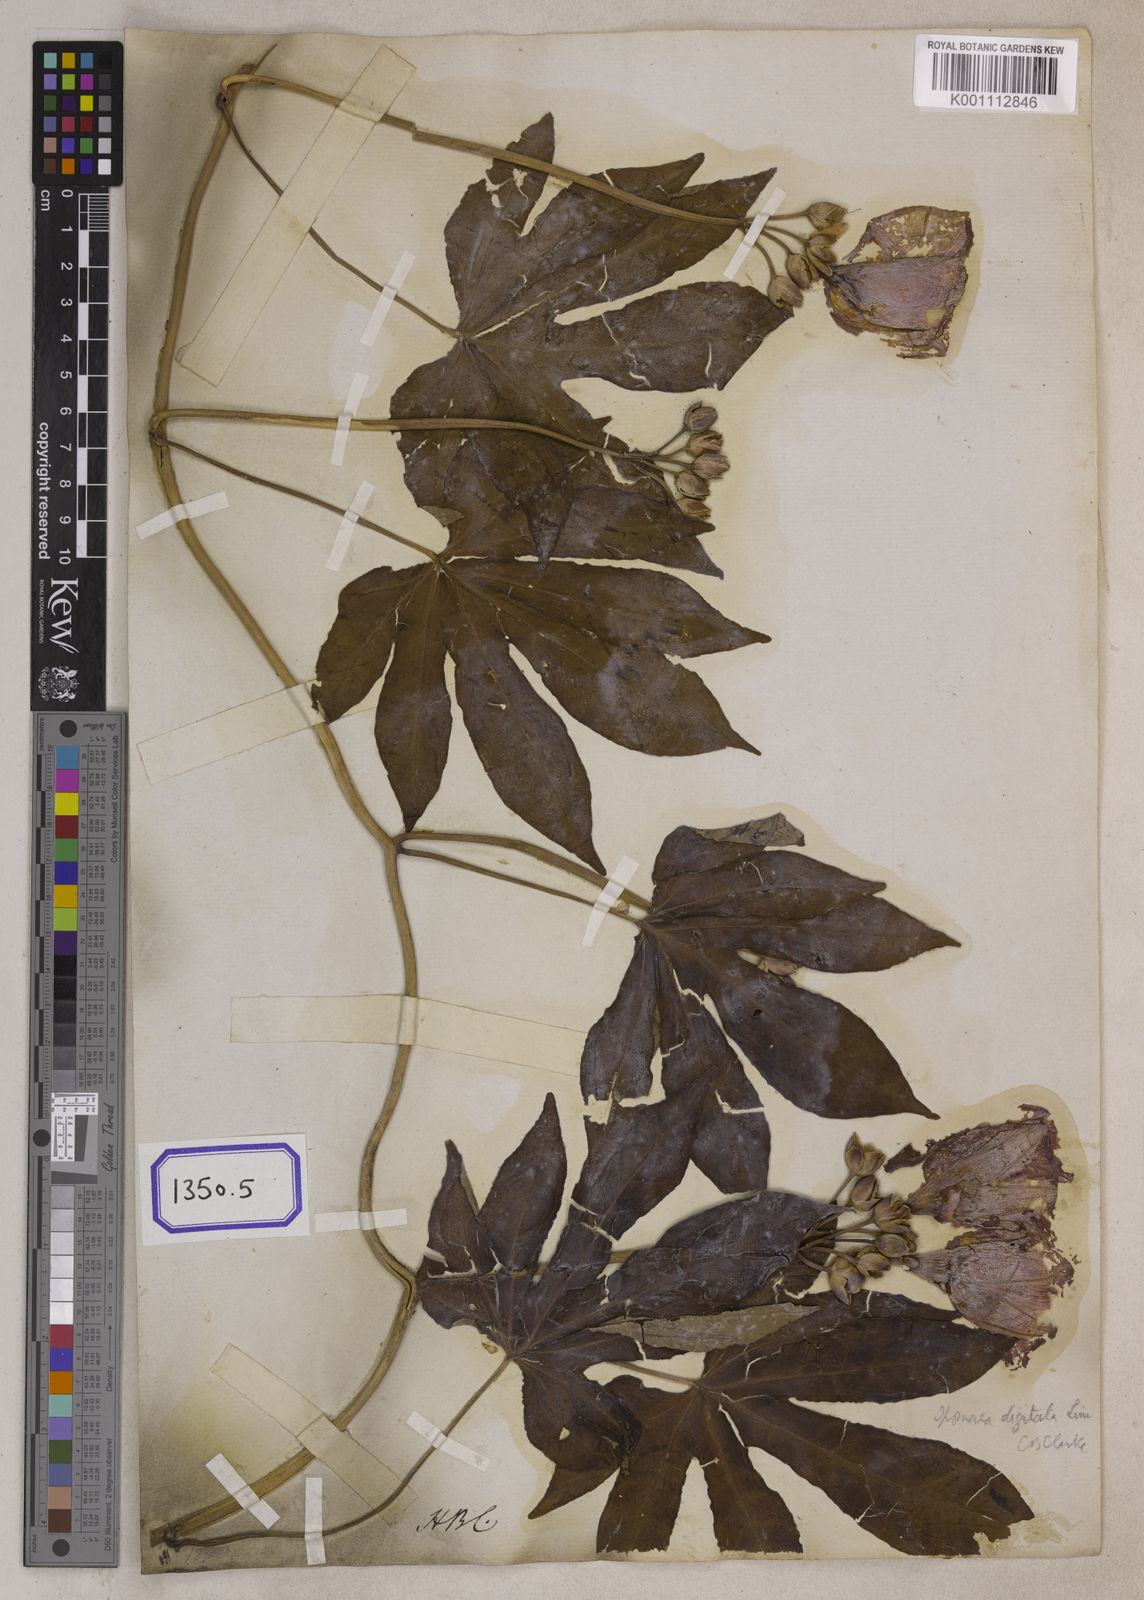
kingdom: Plantae
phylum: Tracheophyta
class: Magnoliopsida
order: Solanales
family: Convolvulaceae
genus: Ipomoea
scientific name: Ipomoea mauritiana
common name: Mauritanian convolvulus
